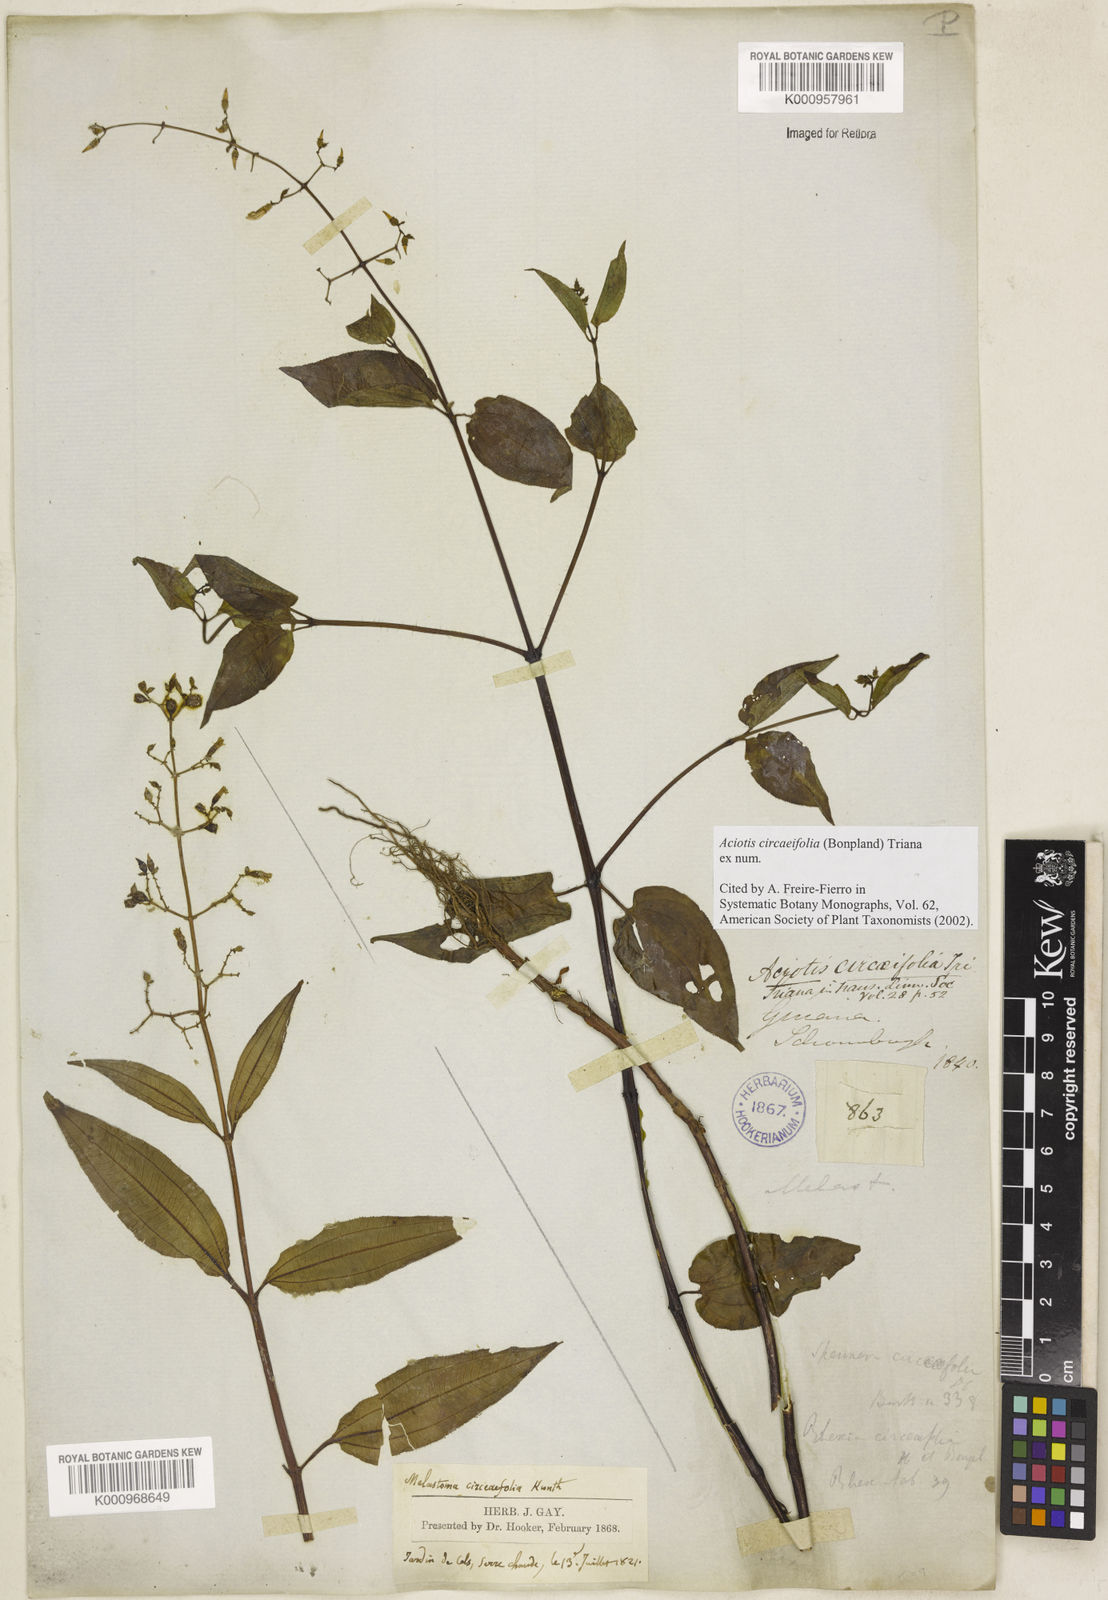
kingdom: Plantae
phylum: Tracheophyta
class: Magnoliopsida
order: Myrtales
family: Melastomataceae
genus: Mouriri
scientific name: Mouriri
